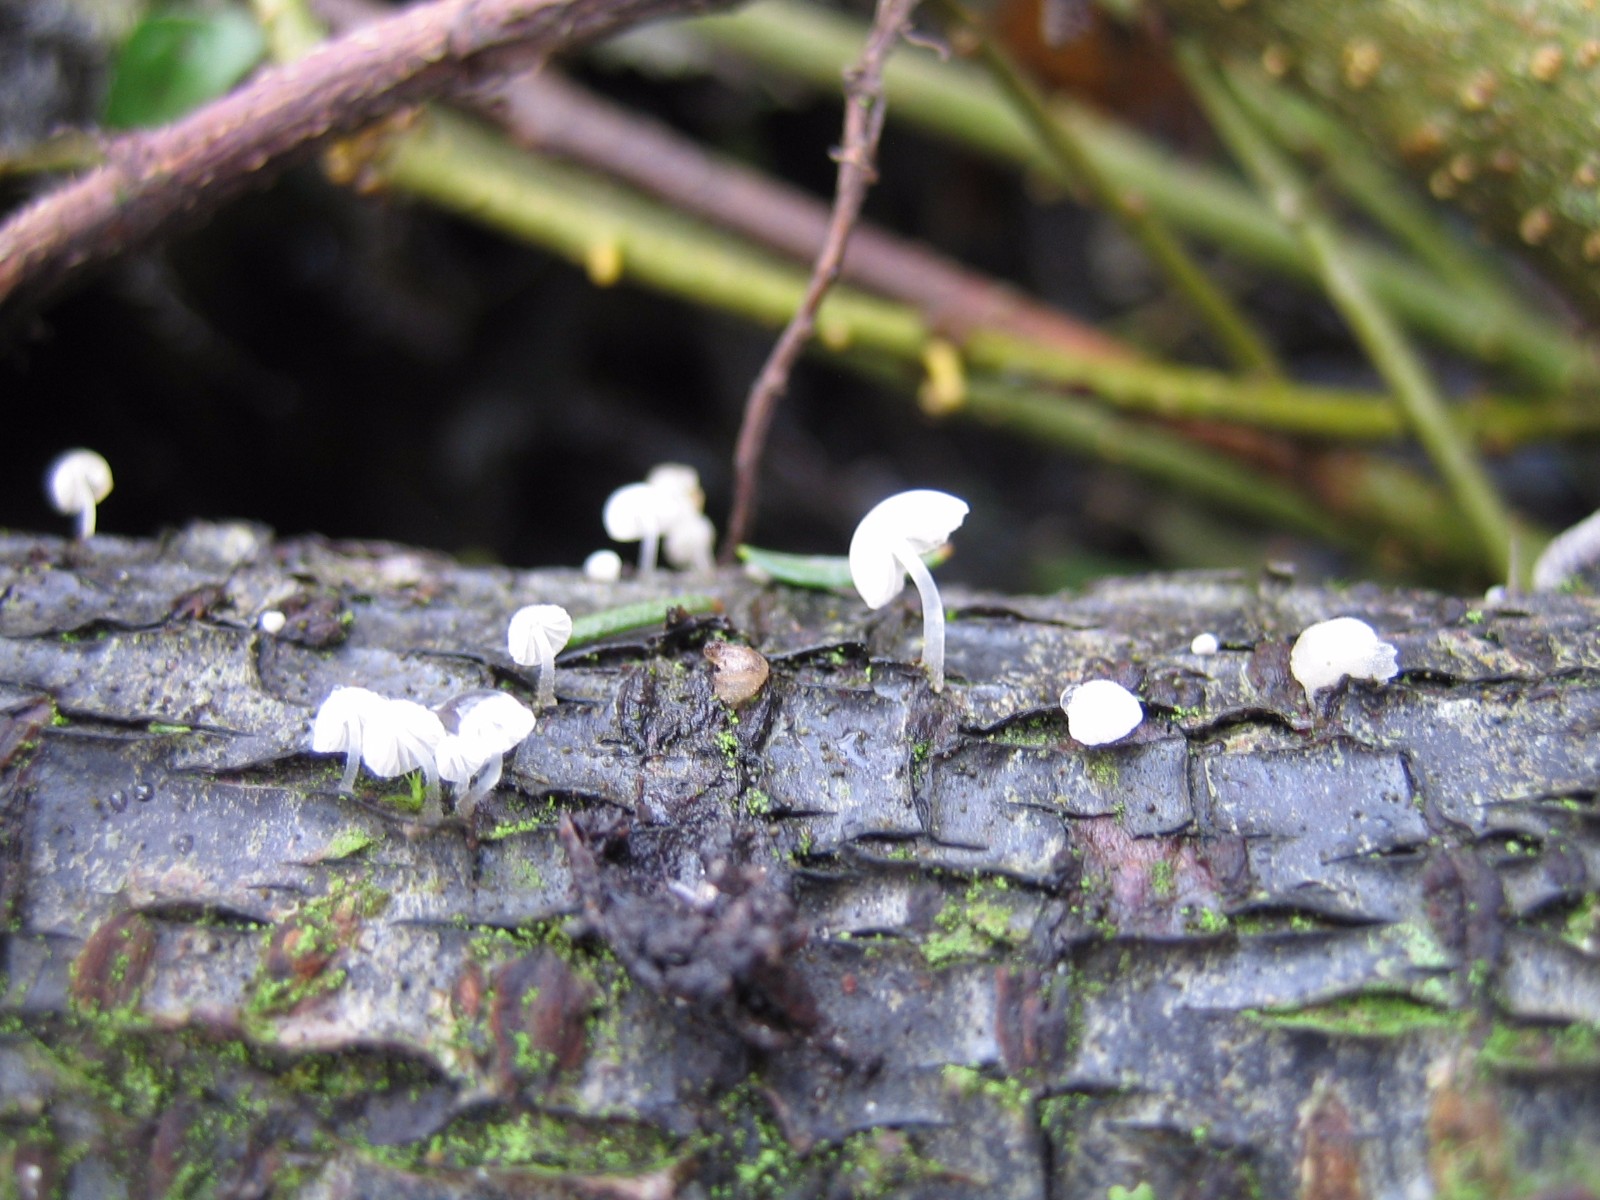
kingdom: Fungi
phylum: Basidiomycota
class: Agaricomycetes
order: Agaricales
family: Mycenaceae
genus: Mycena
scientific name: Mycena
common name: huesvamp
